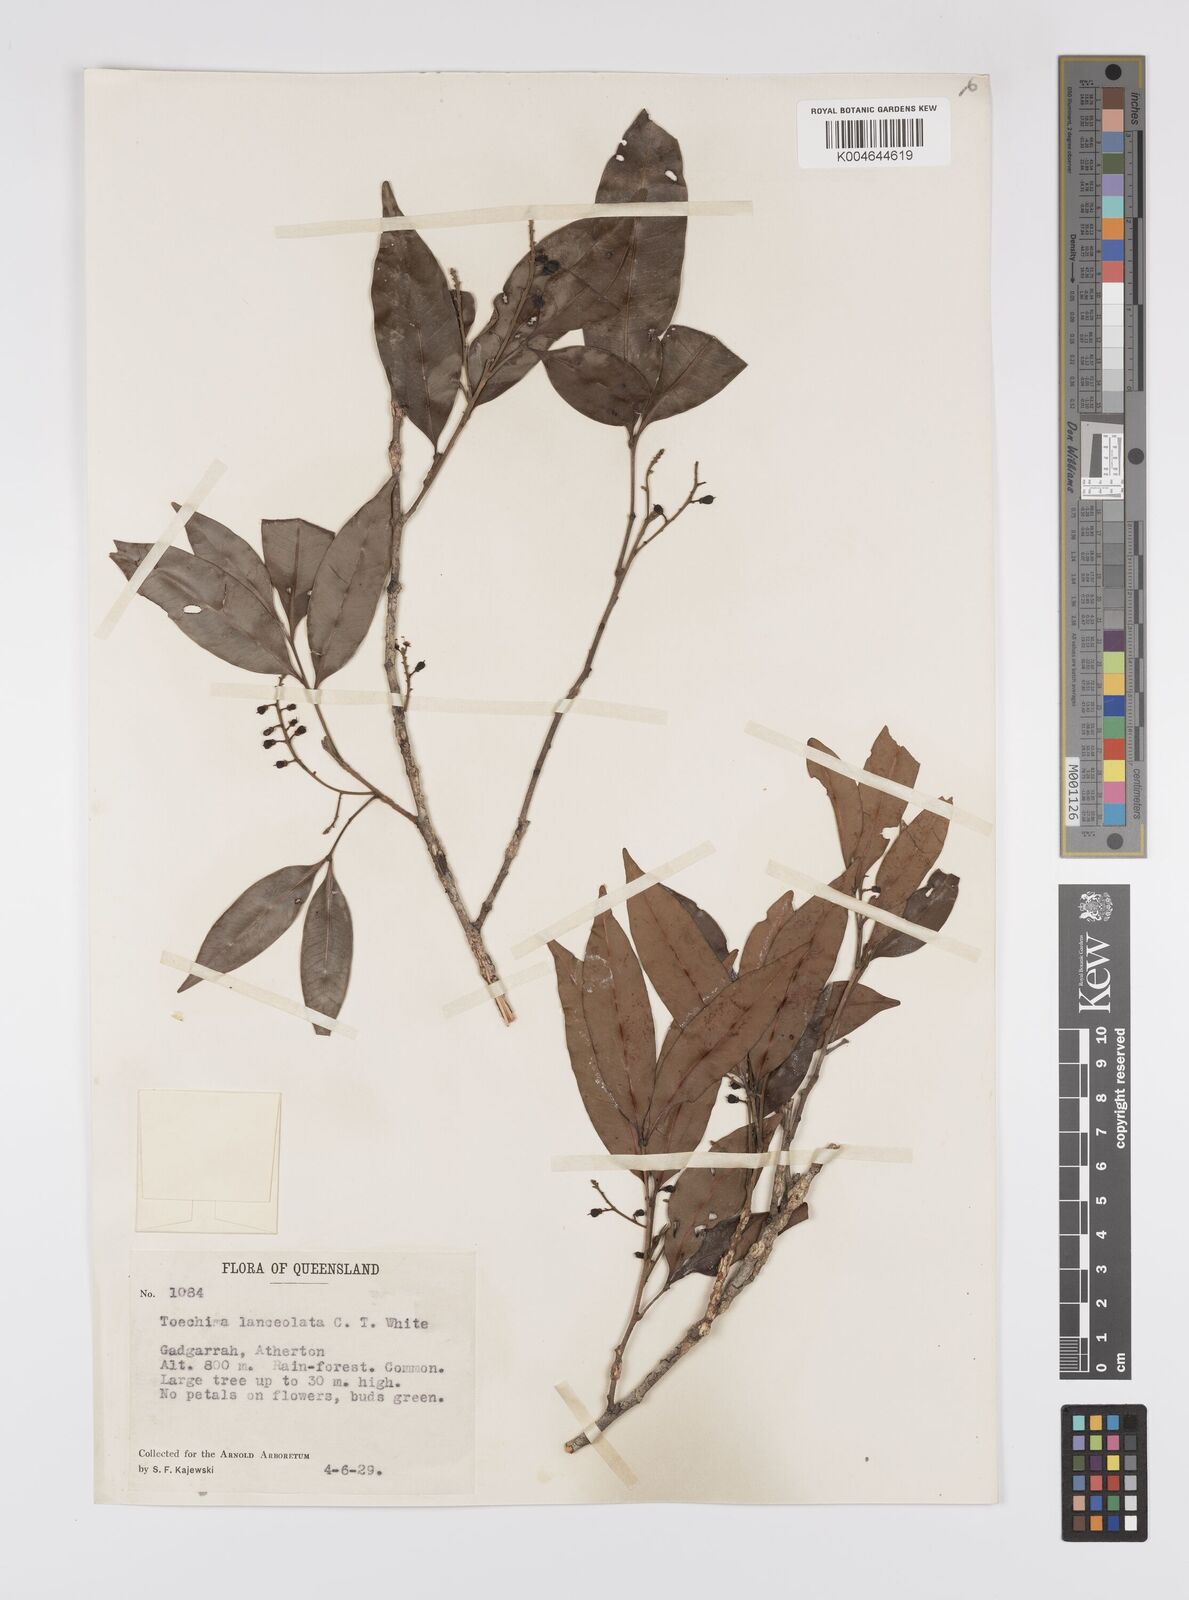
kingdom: Plantae
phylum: Tracheophyta
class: Magnoliopsida
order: Sapindales
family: Sapindaceae
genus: Sarcotoechia
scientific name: Sarcotoechia lanceolata
